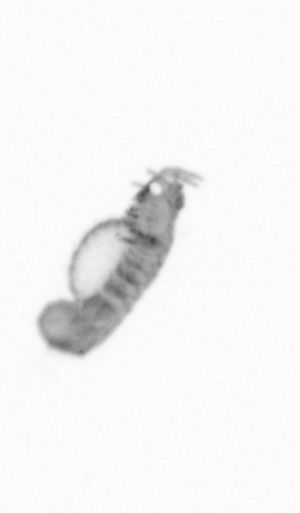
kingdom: Animalia
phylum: Annelida
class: Polychaeta
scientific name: Polychaeta
